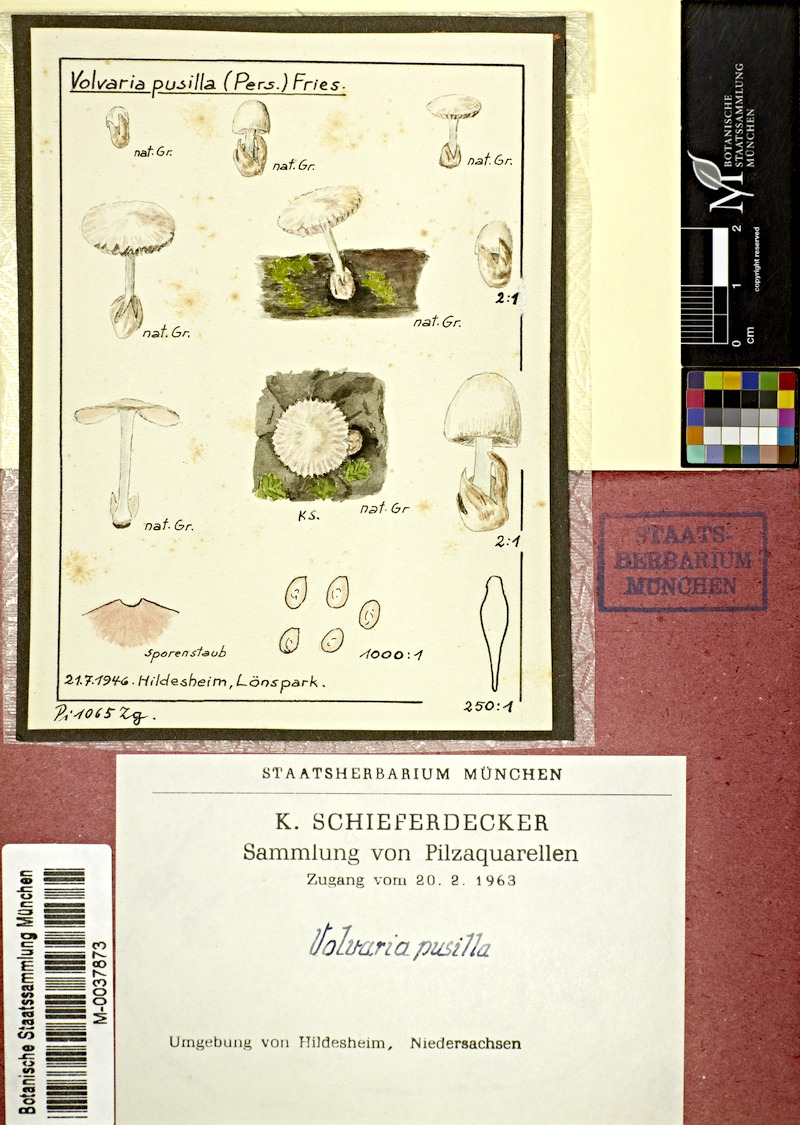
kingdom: Fungi
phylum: Basidiomycota
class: Agaricomycetes
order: Agaricales
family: Pluteaceae
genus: Volvariella
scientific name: Volvariella pusilla
